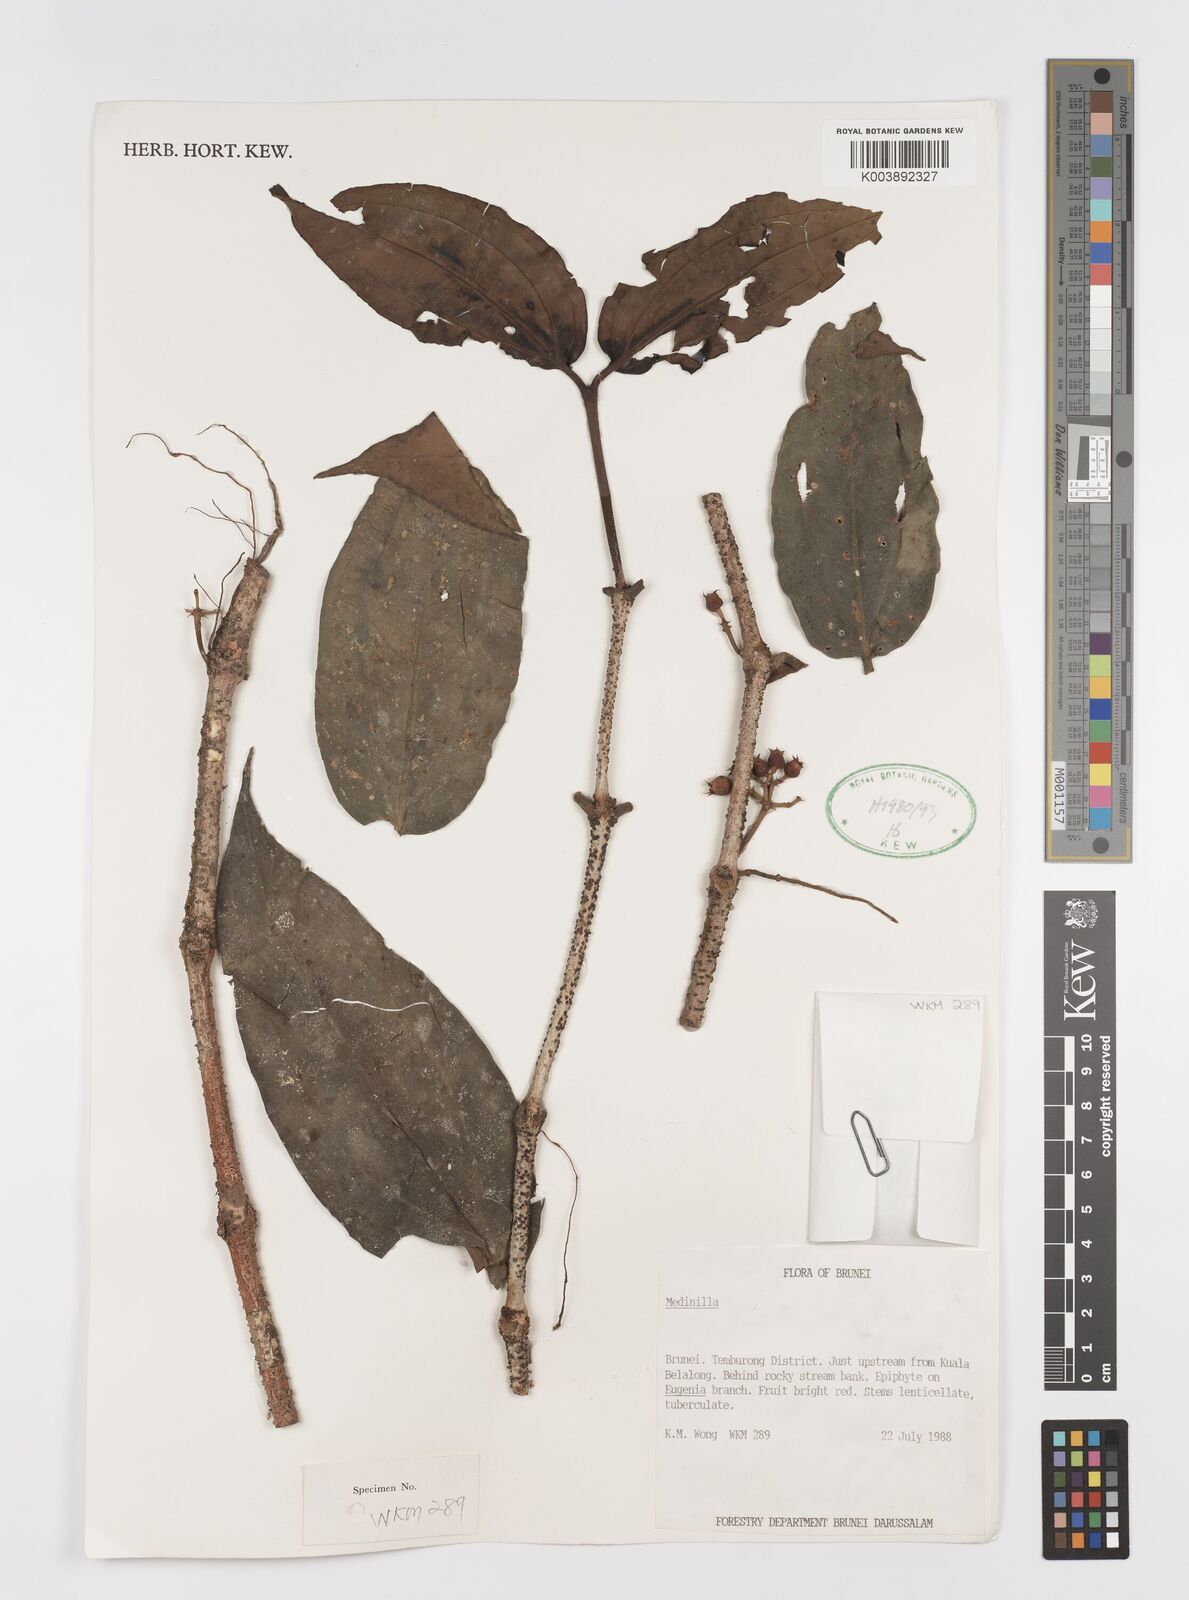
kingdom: Plantae
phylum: Tracheophyta
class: Magnoliopsida
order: Myrtales
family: Melastomataceae
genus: Medinilla
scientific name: Medinilla
